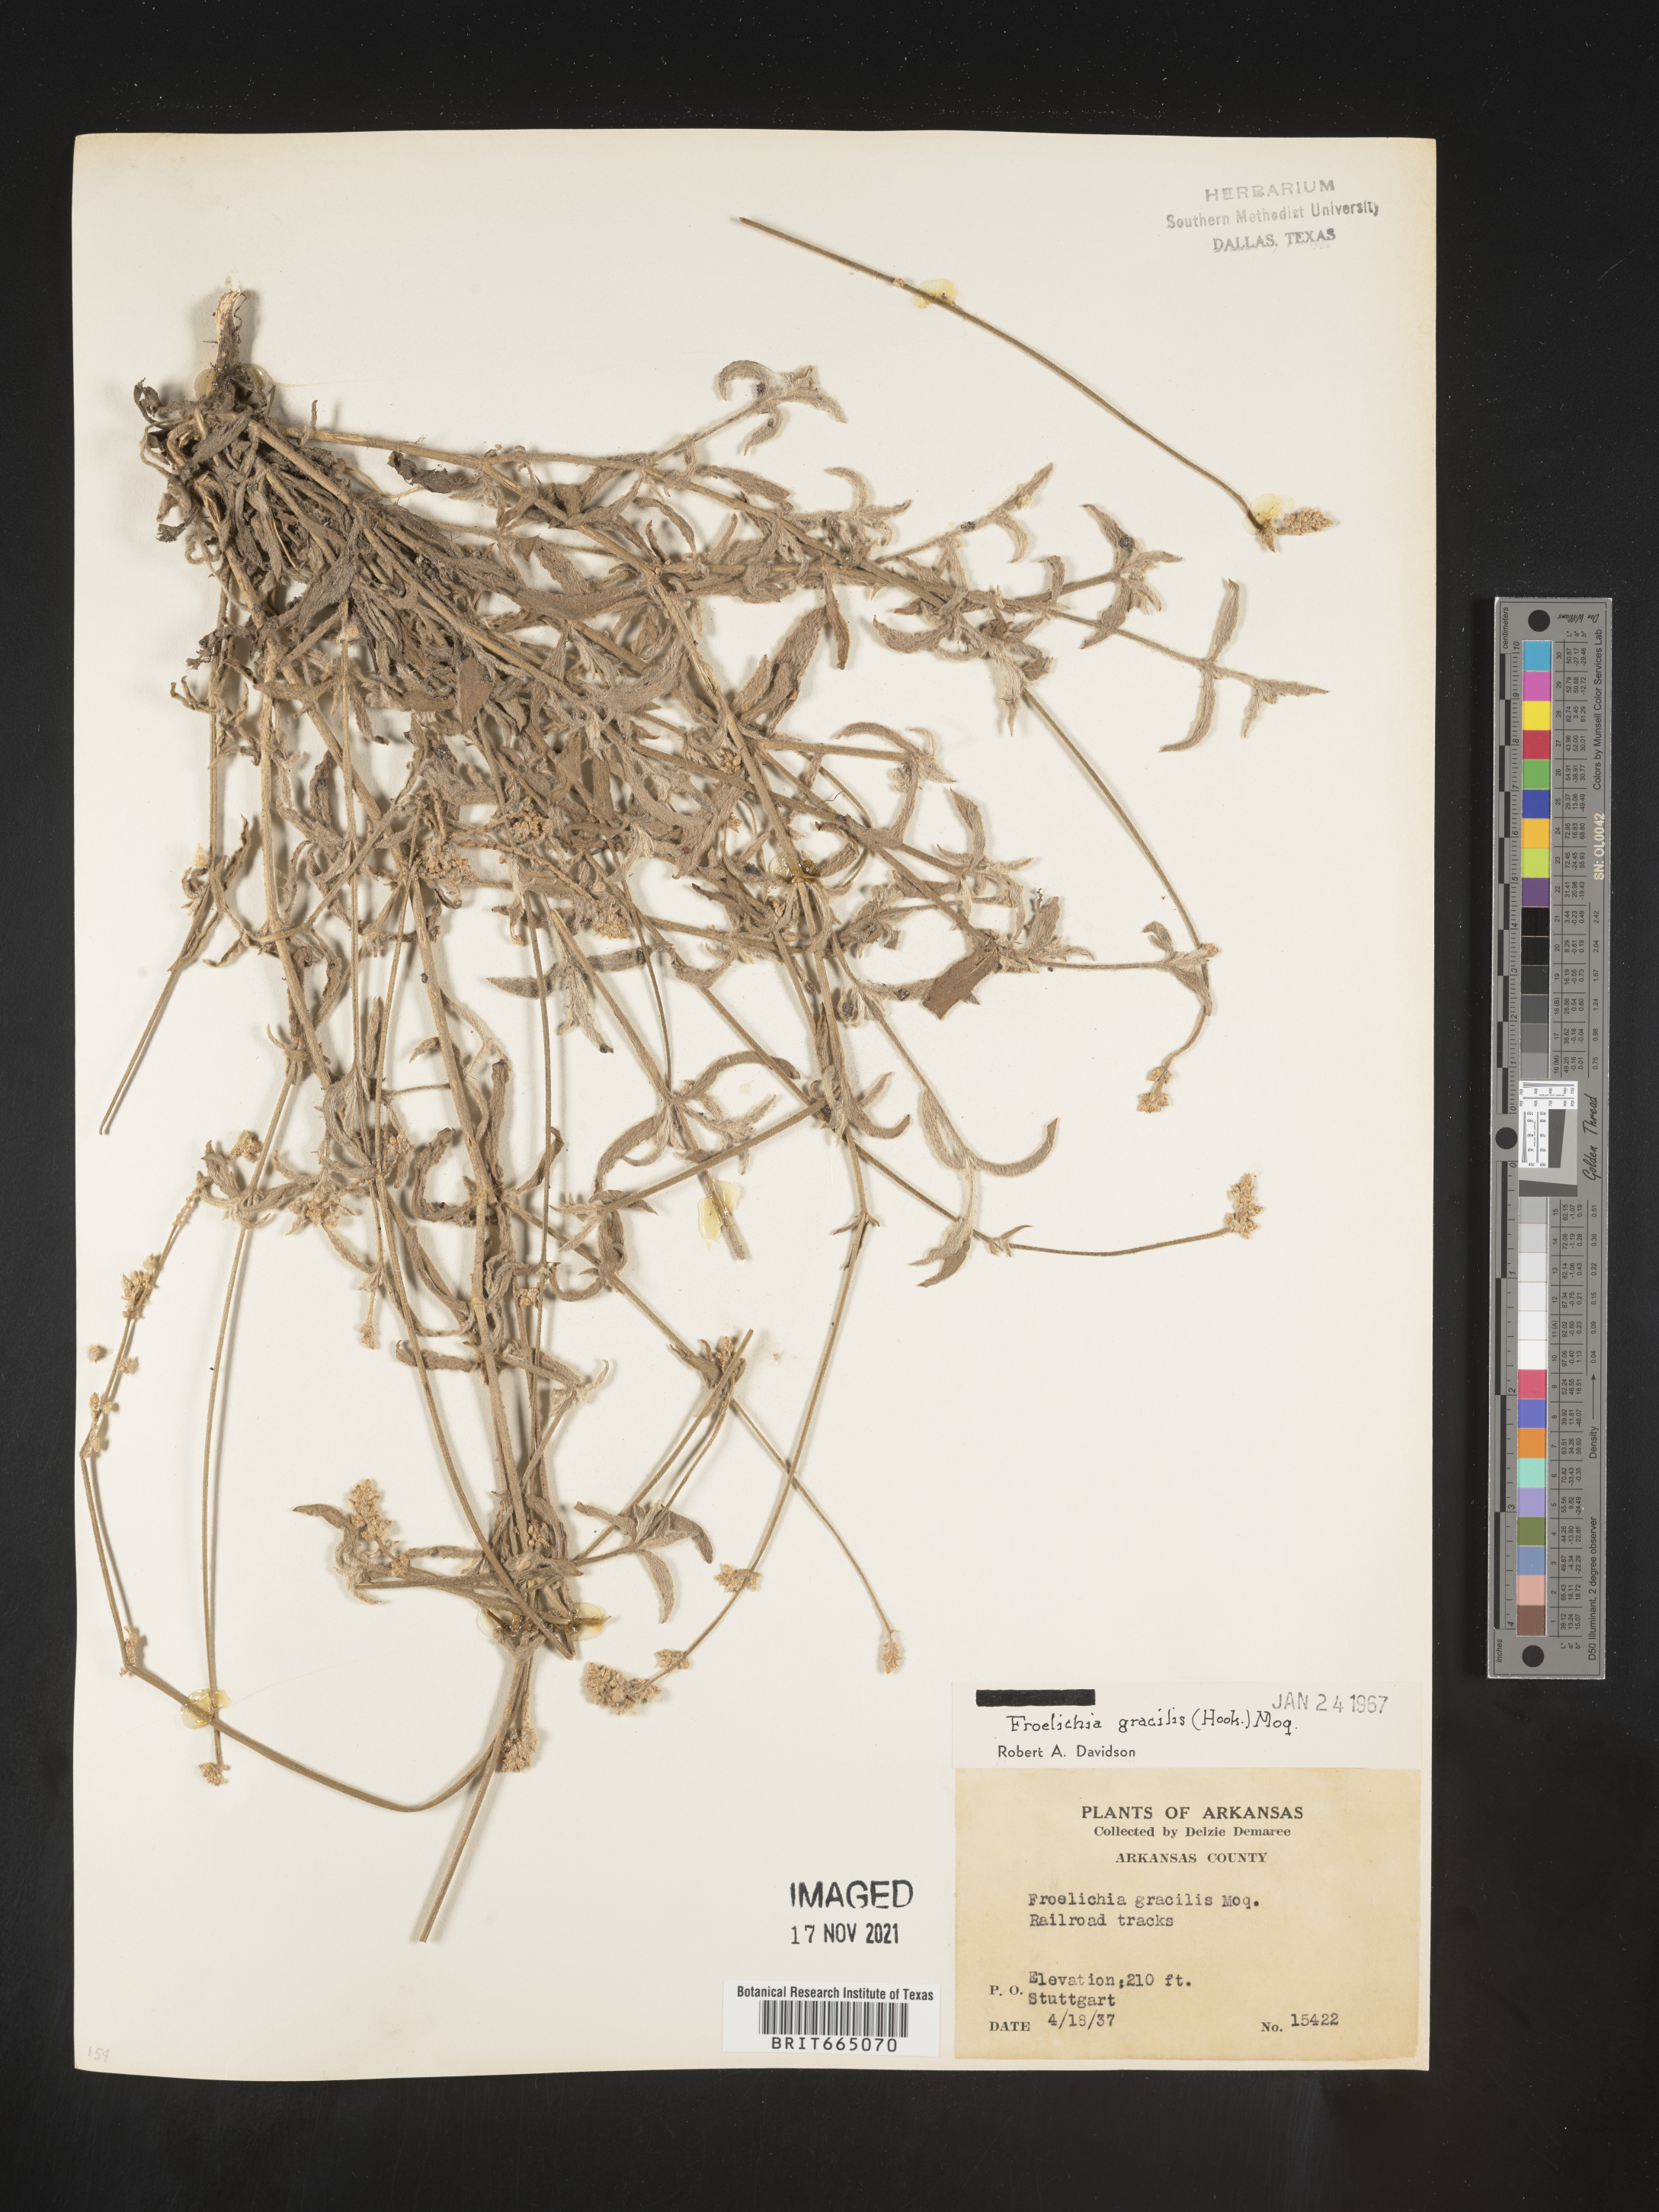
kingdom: Plantae
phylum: Tracheophyta
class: Magnoliopsida
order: Caryophyllales
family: Amaranthaceae
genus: Froelichia
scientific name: Froelichia gracilis
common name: Slender cottonweed
